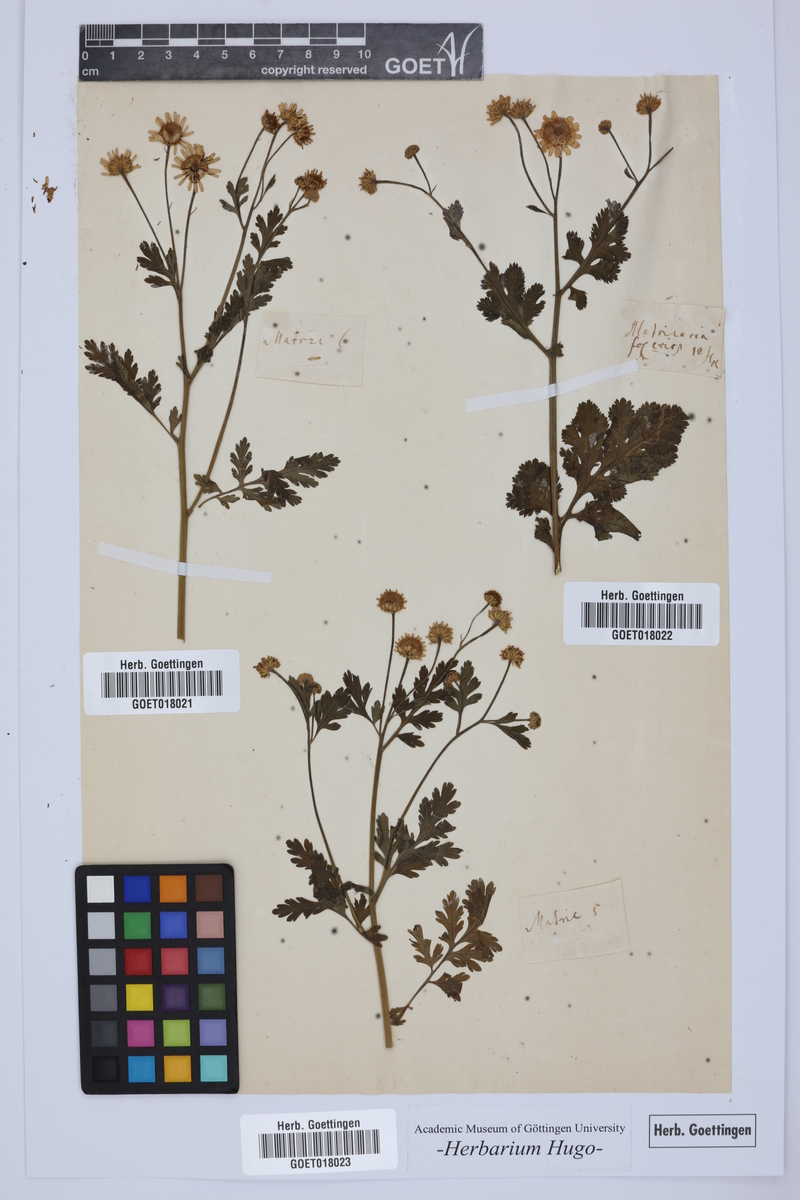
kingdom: Plantae
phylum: Tracheophyta
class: Magnoliopsida
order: Asterales
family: Asteraceae
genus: Matricaria
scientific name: Matricaria
